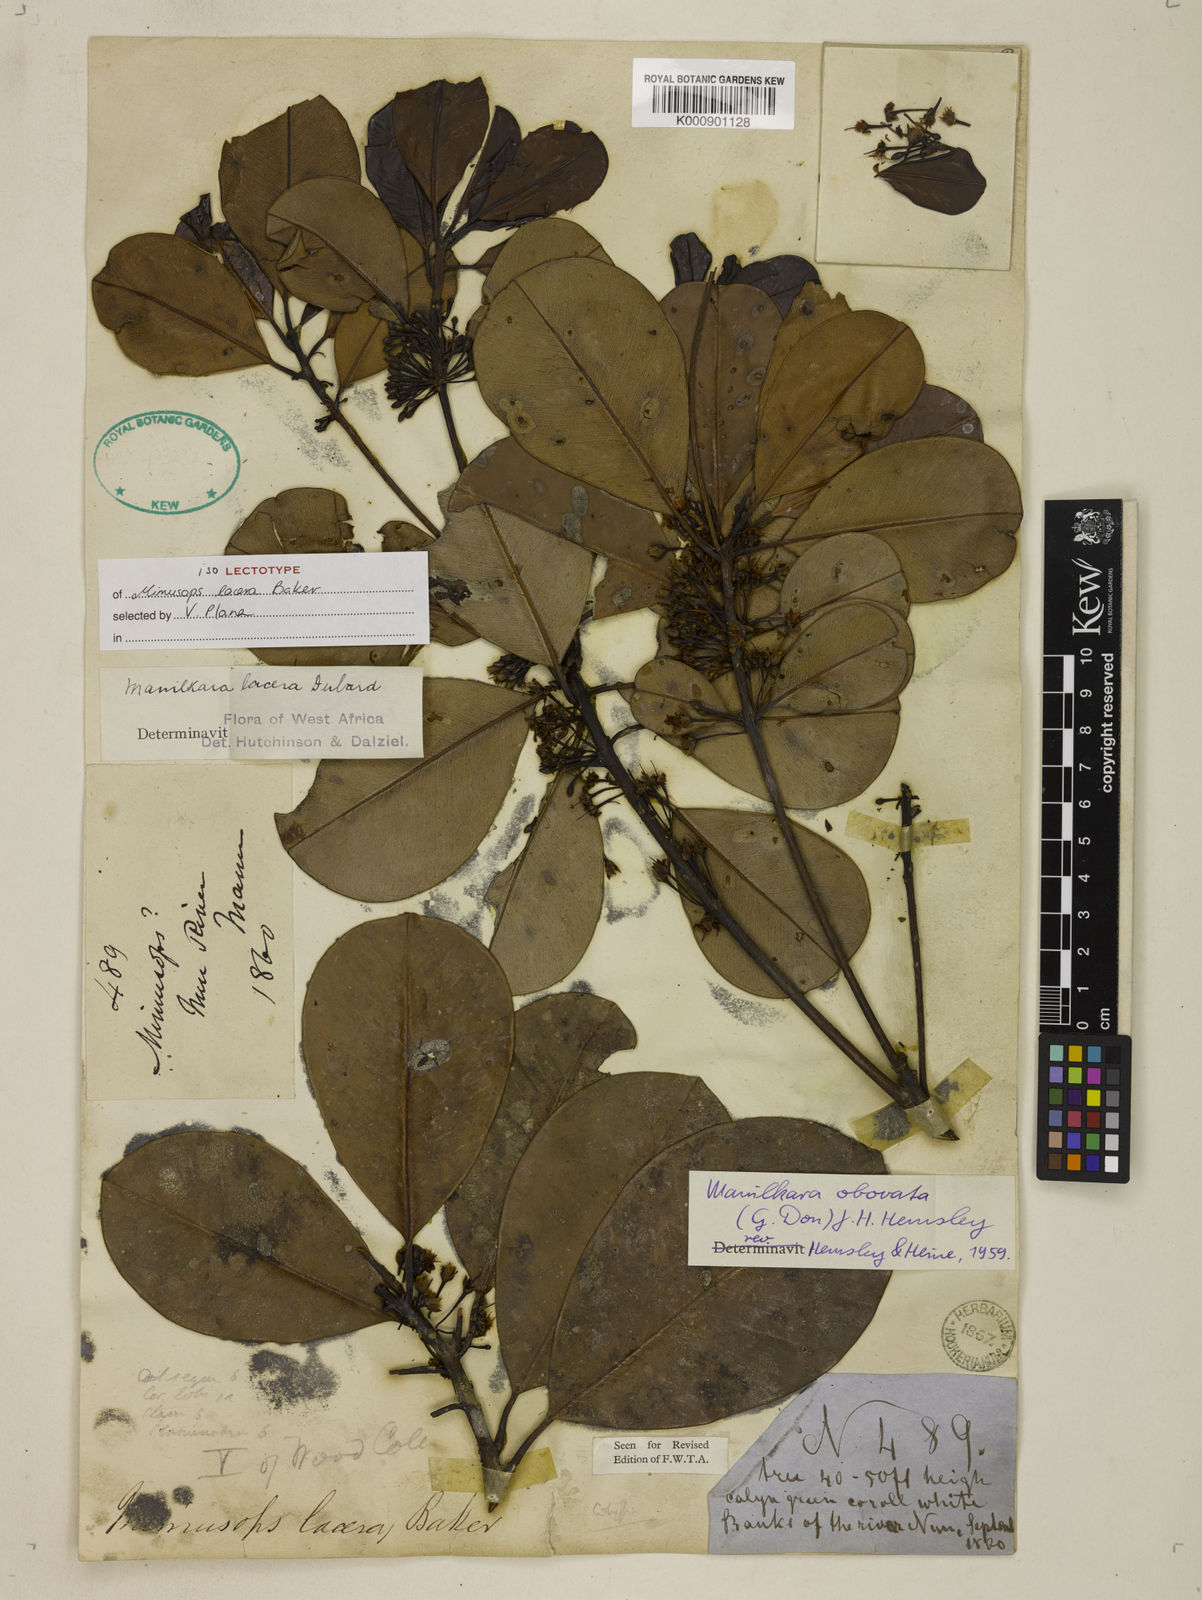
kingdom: Plantae
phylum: Tracheophyta
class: Magnoliopsida
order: Ericales
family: Sapotaceae
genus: Manilkara
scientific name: Manilkara obovata
